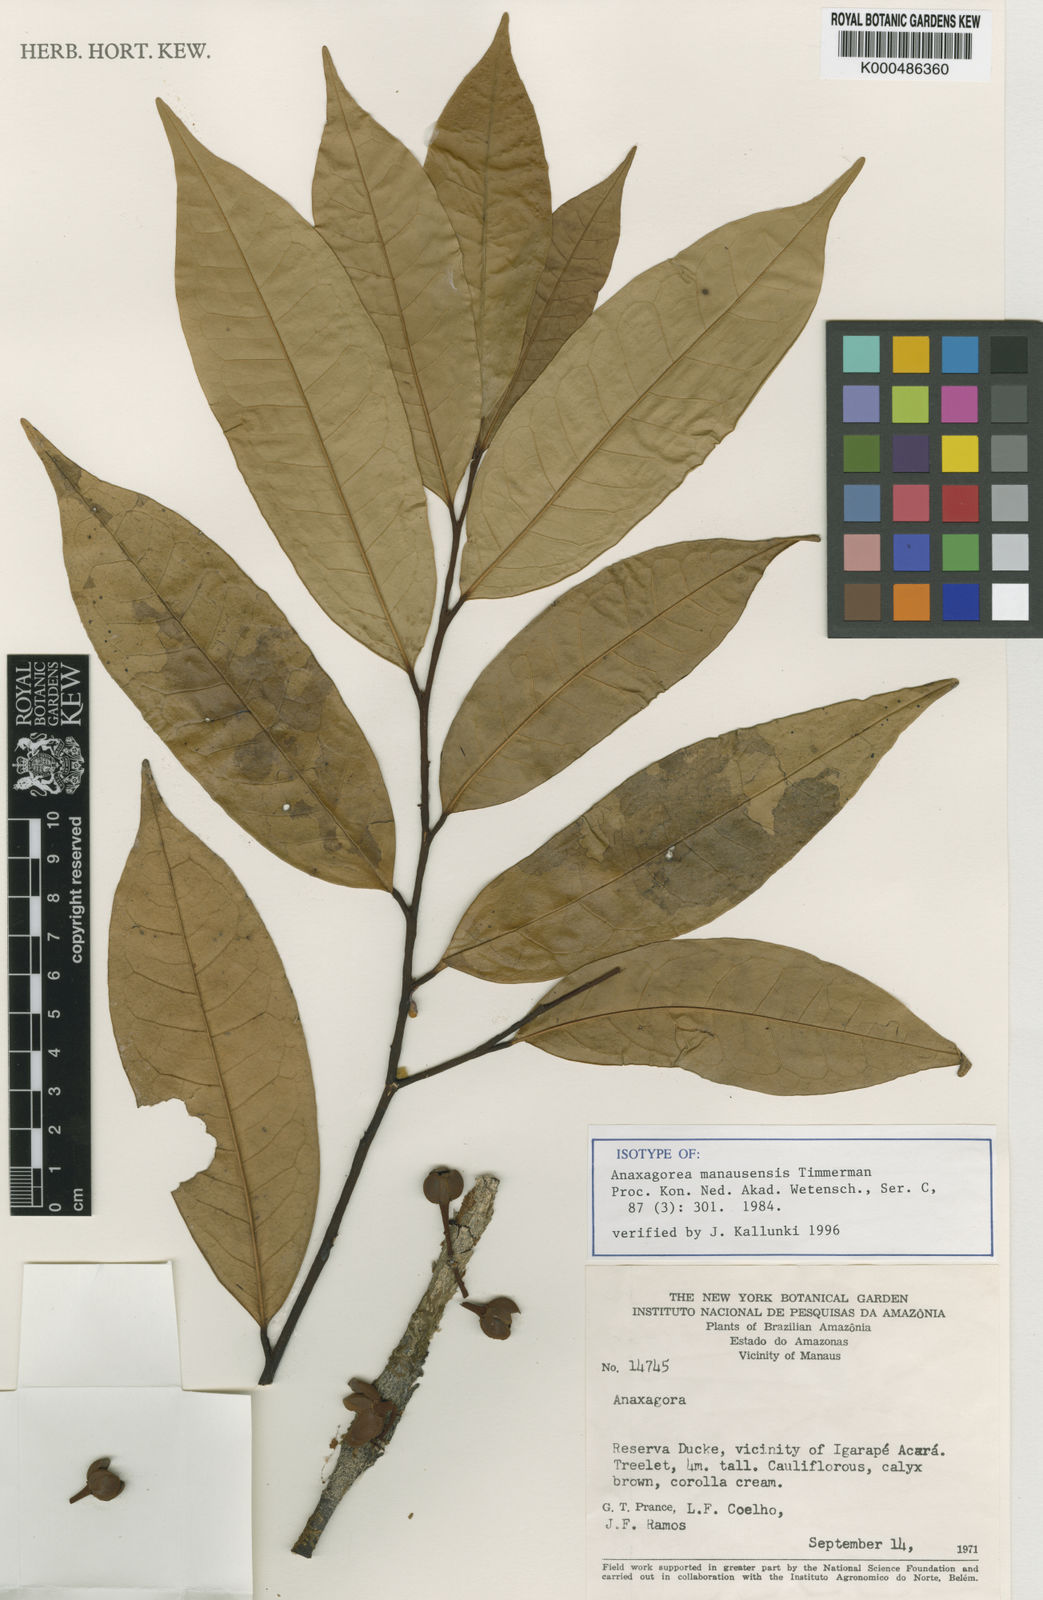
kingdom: Plantae
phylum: Tracheophyta
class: Magnoliopsida
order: Magnoliales
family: Annonaceae
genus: Anaxagorea
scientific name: Anaxagorea manausensis
